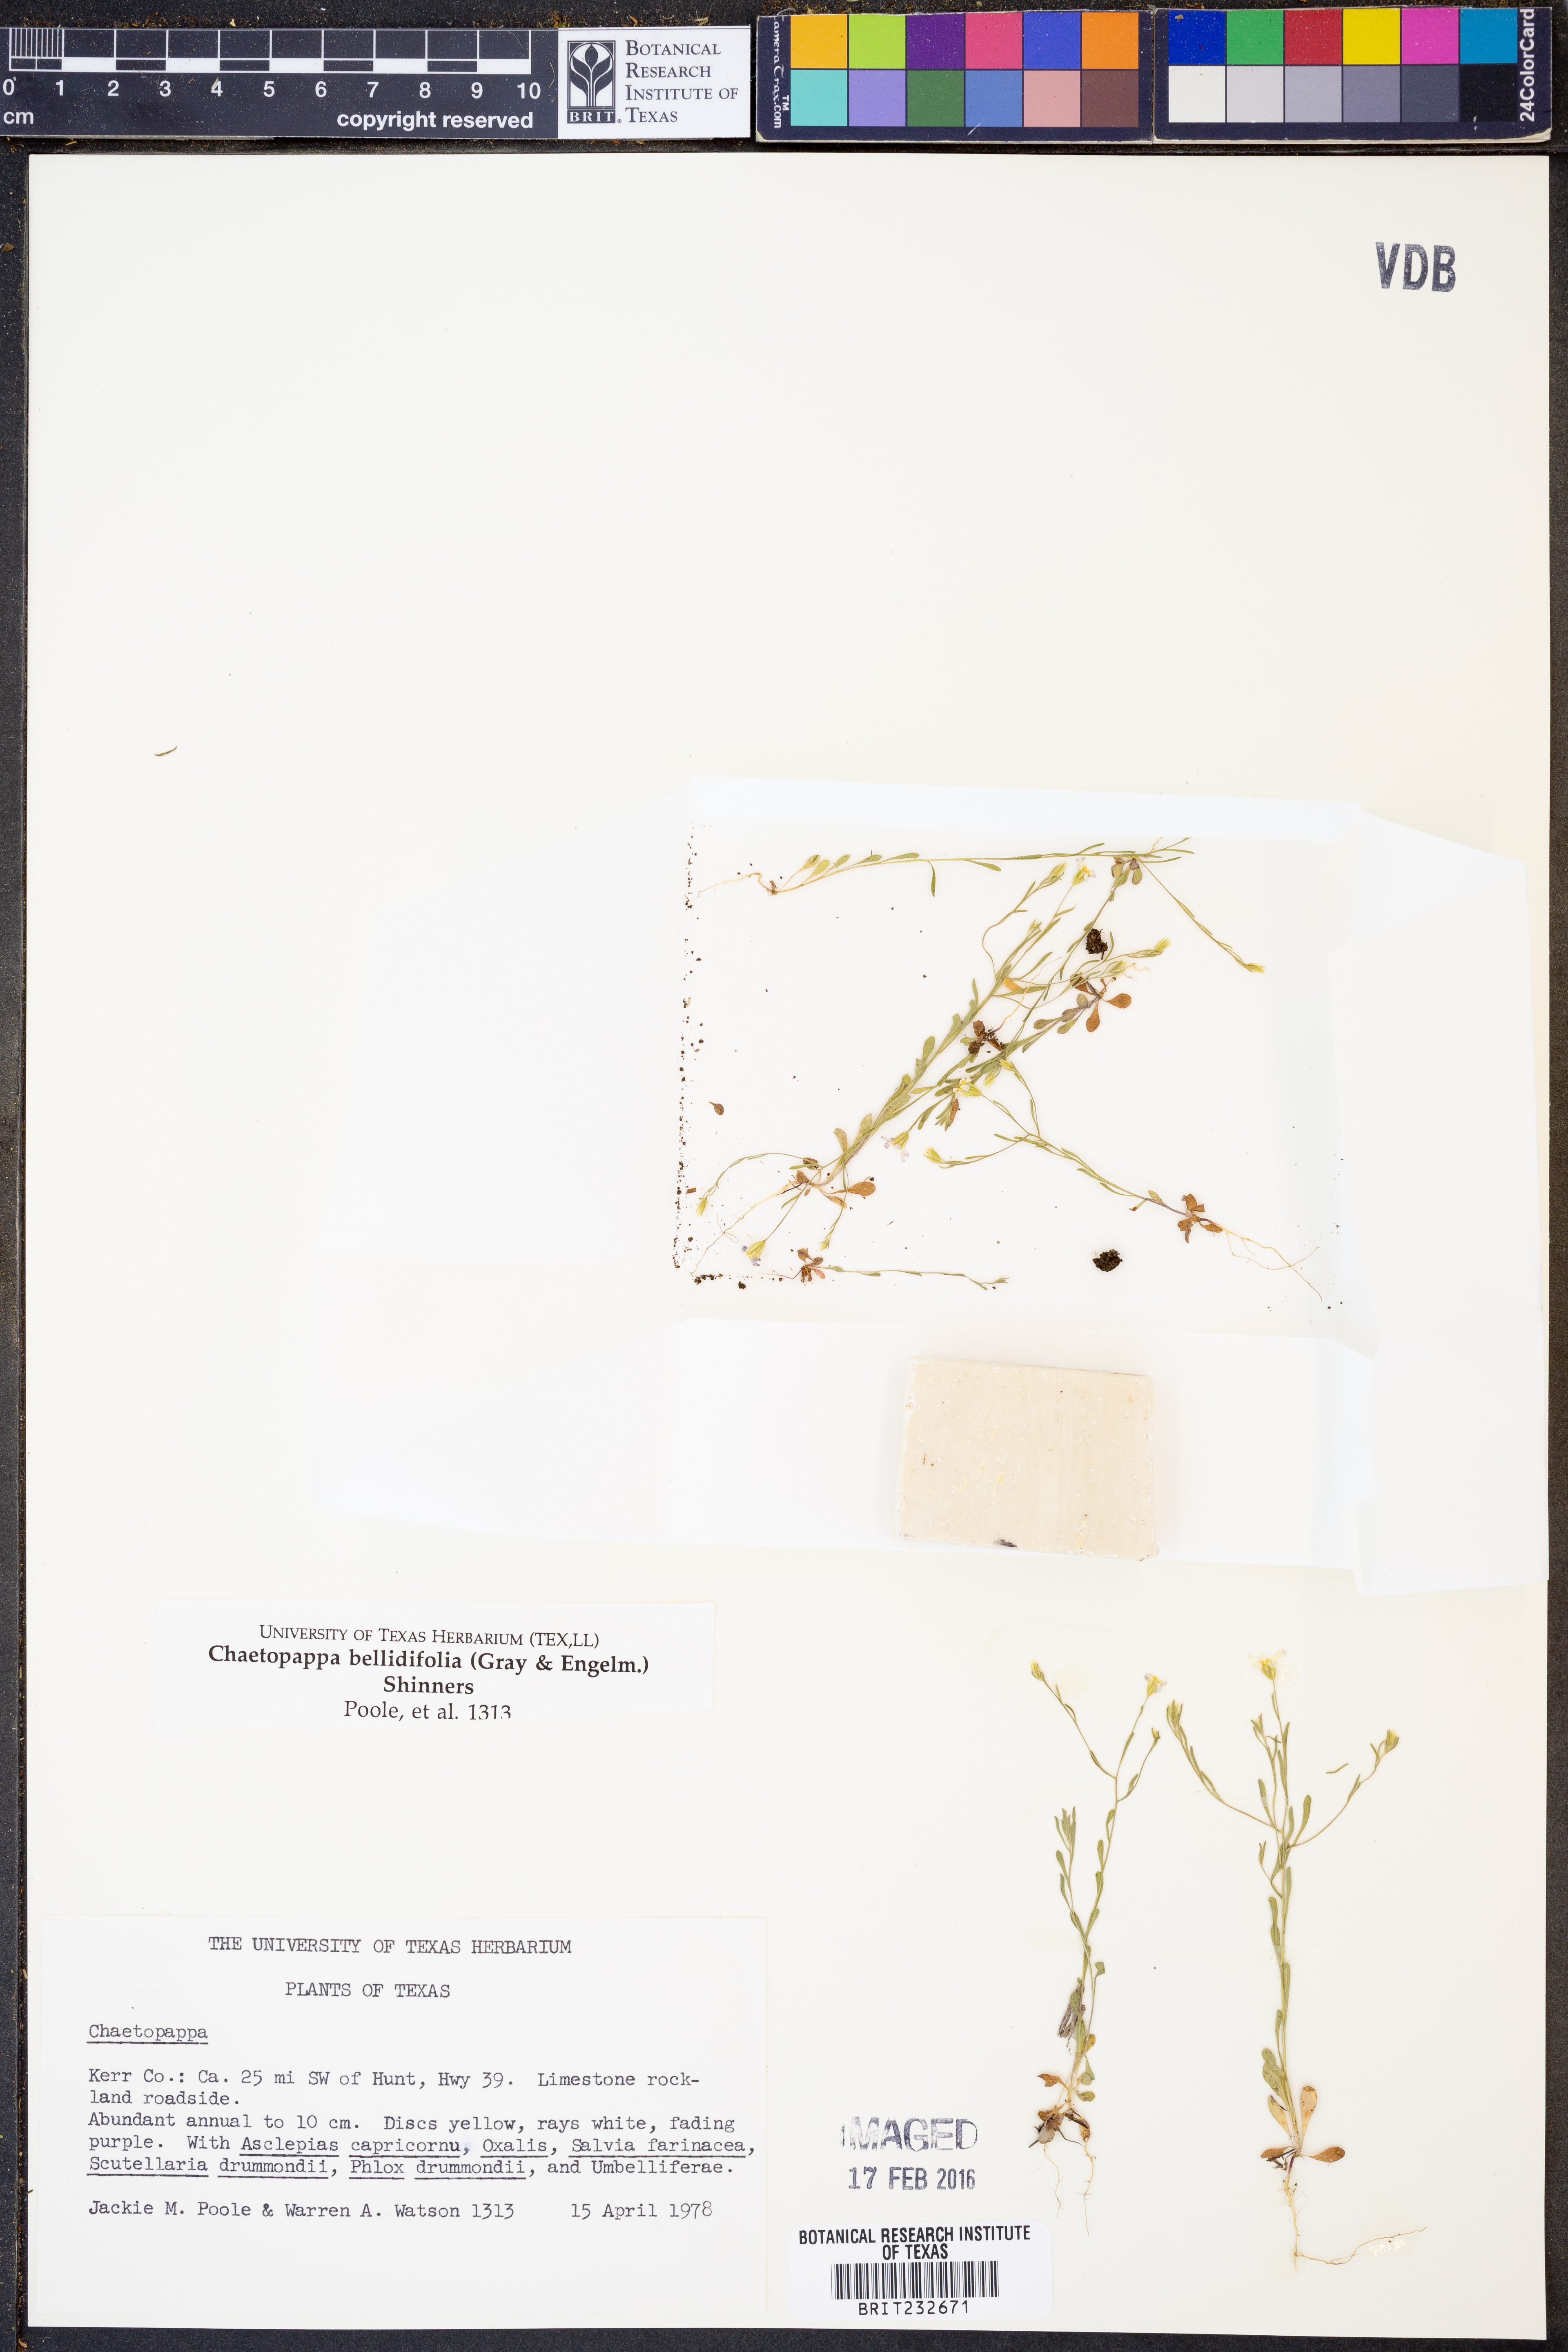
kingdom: Plantae
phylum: Tracheophyta
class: Magnoliopsida
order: Asterales
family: Asteraceae
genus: Chaetopappa
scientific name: Chaetopappa bellidifolia
